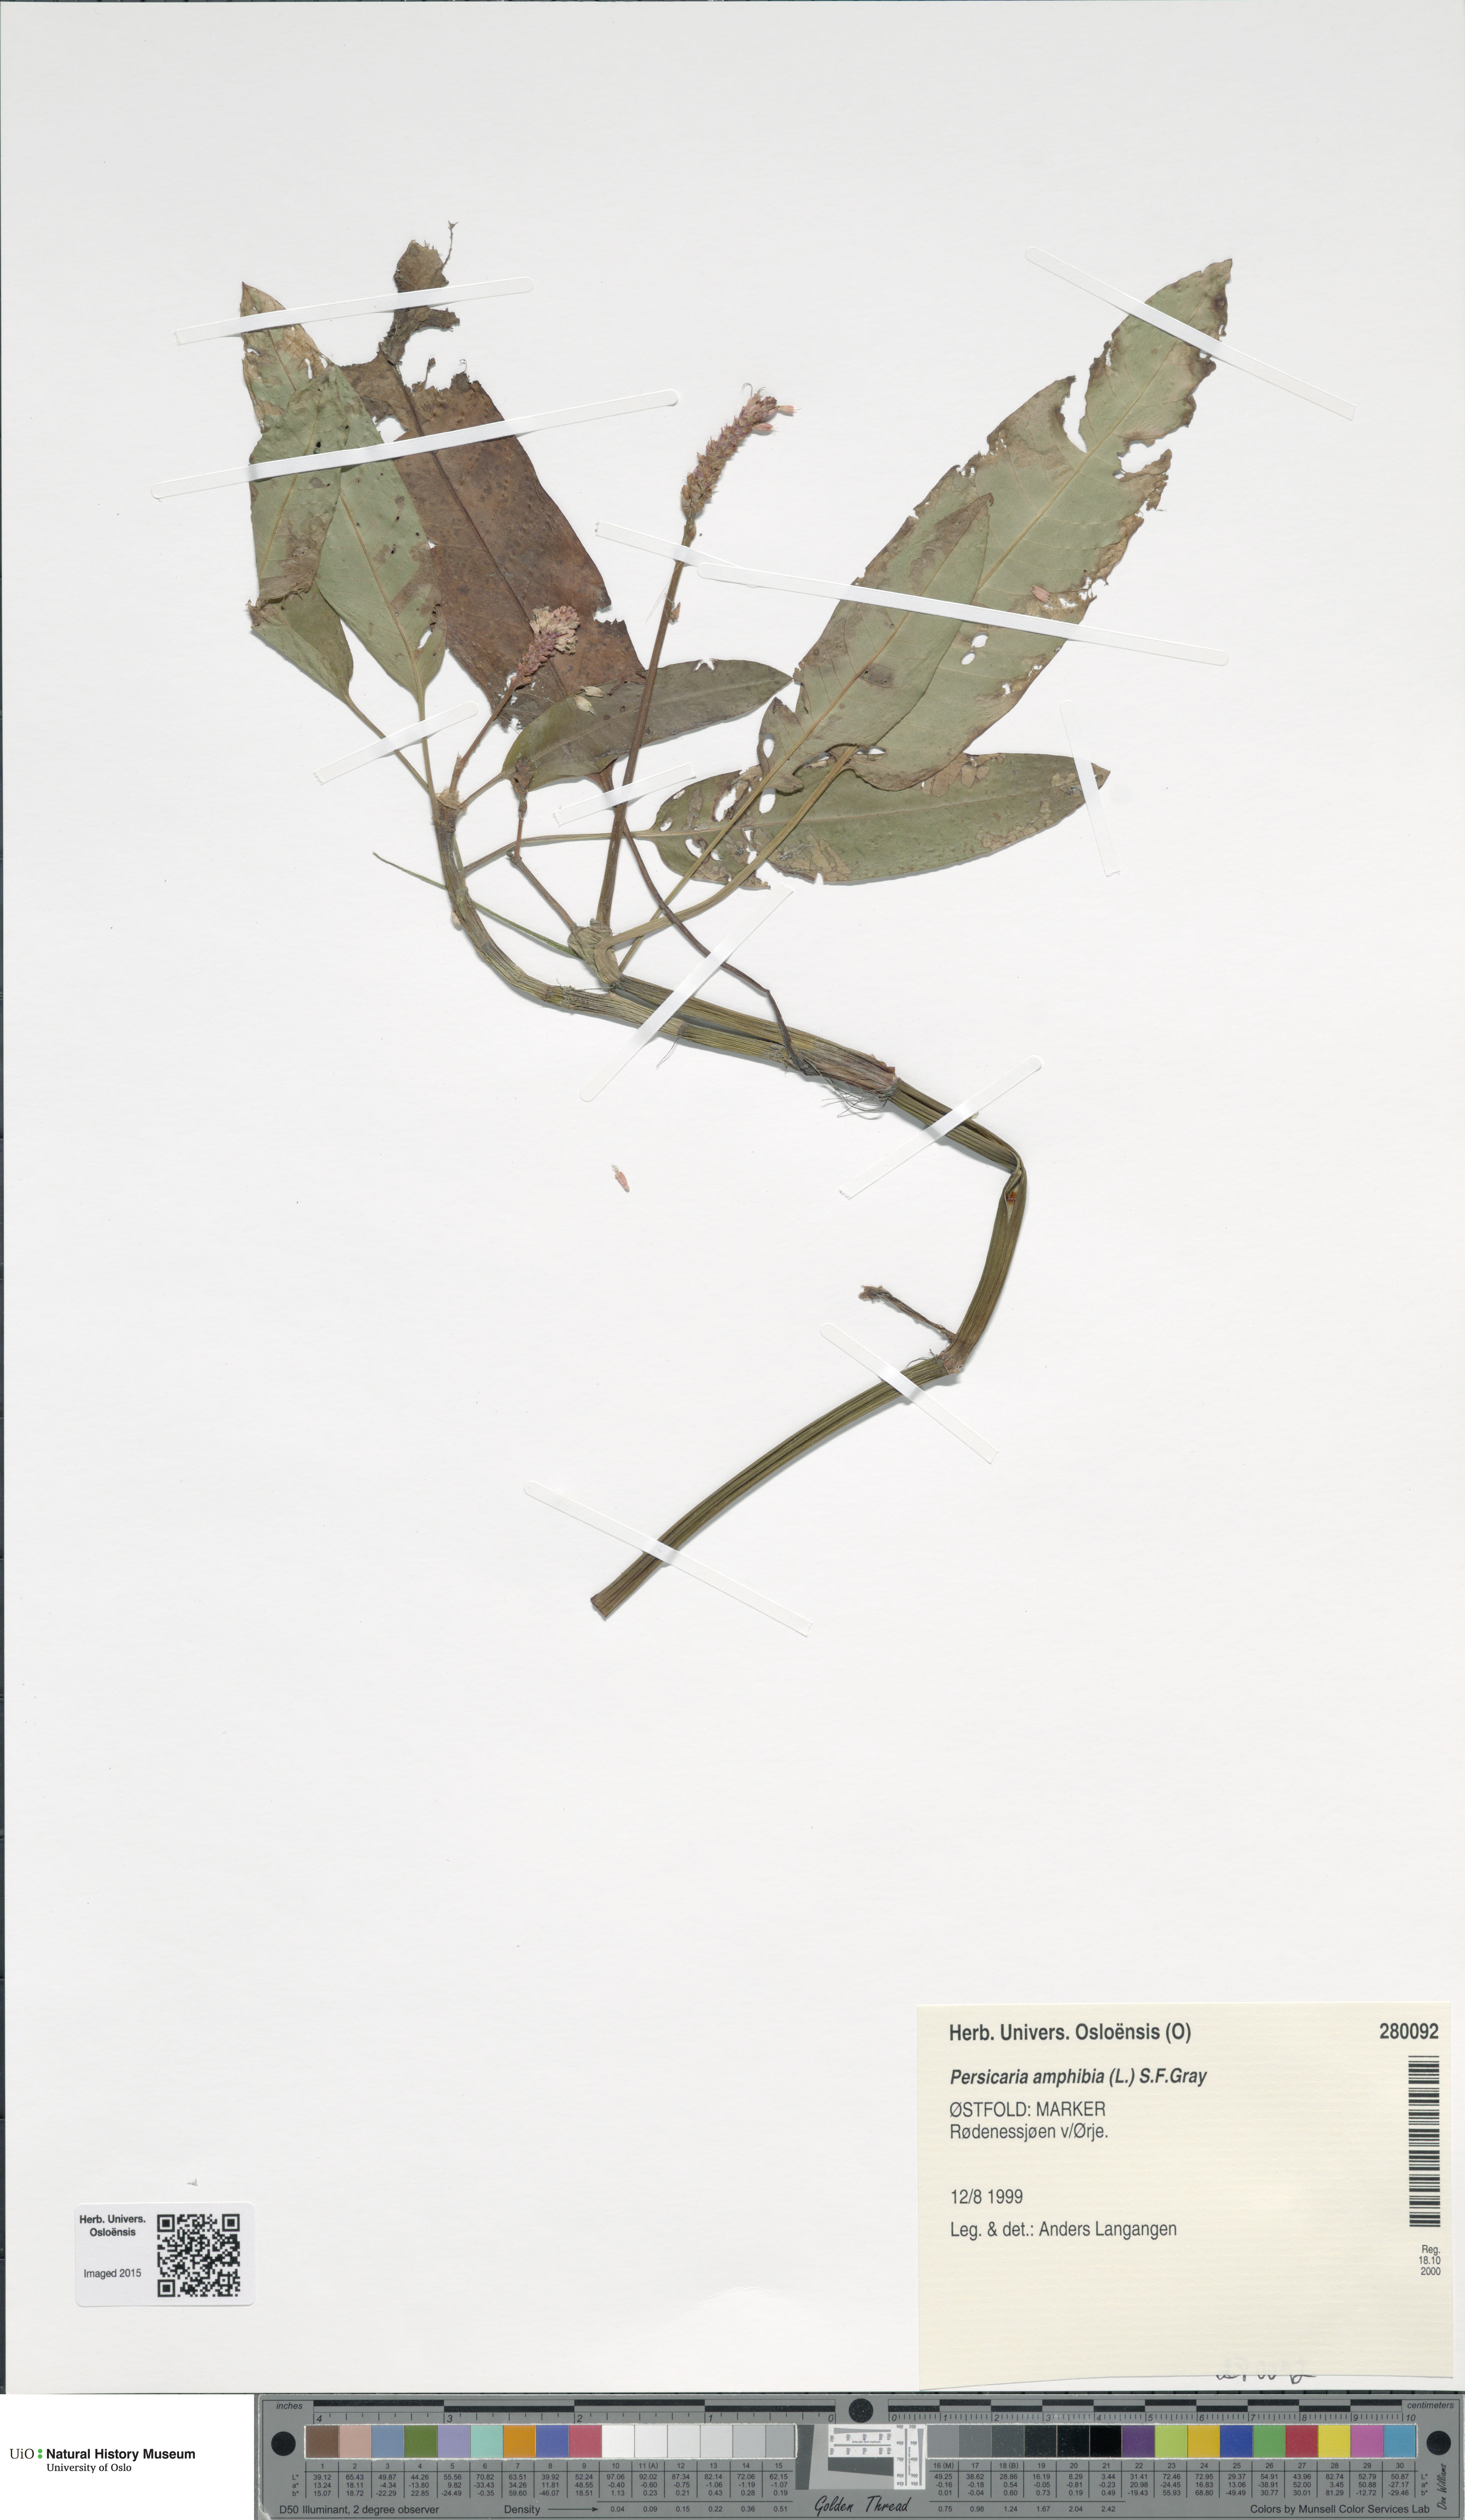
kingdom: Plantae
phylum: Tracheophyta
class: Magnoliopsida
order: Caryophyllales
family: Polygonaceae
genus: Persicaria
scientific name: Persicaria amphibia
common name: Amphibious bistort
